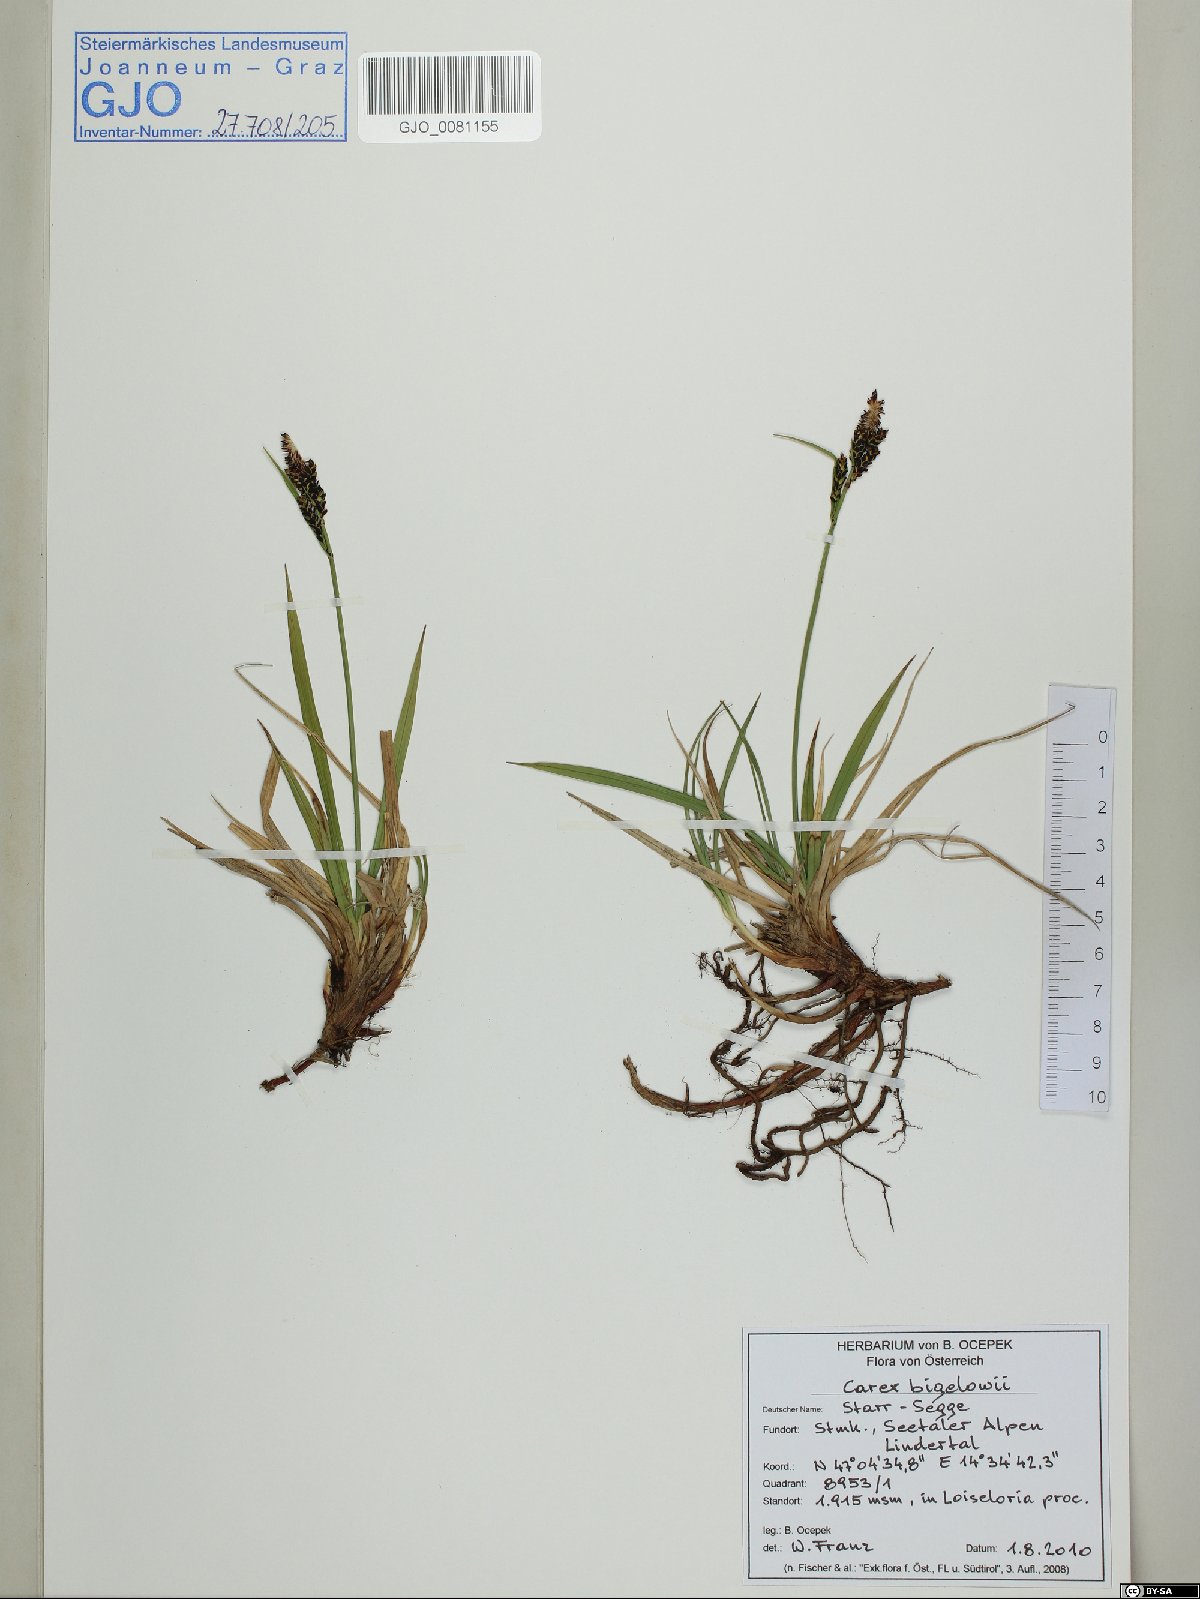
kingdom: Plantae
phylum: Tracheophyta
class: Liliopsida
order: Poales
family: Cyperaceae
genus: Carex
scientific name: Carex bigelowii
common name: Stiff sedge
